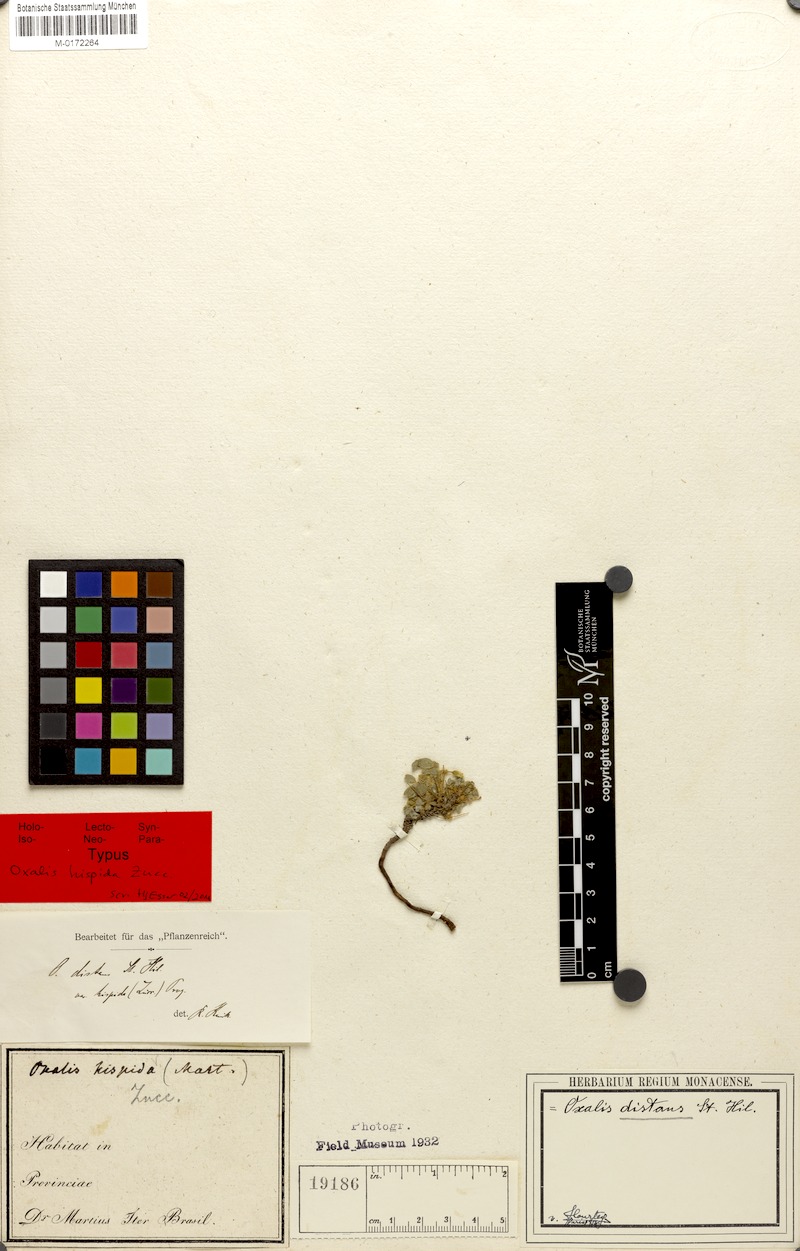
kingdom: Plantae
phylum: Tracheophyta
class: Magnoliopsida
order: Oxalidales
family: Oxalidaceae
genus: Oxalis
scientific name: Oxalis frutescens
